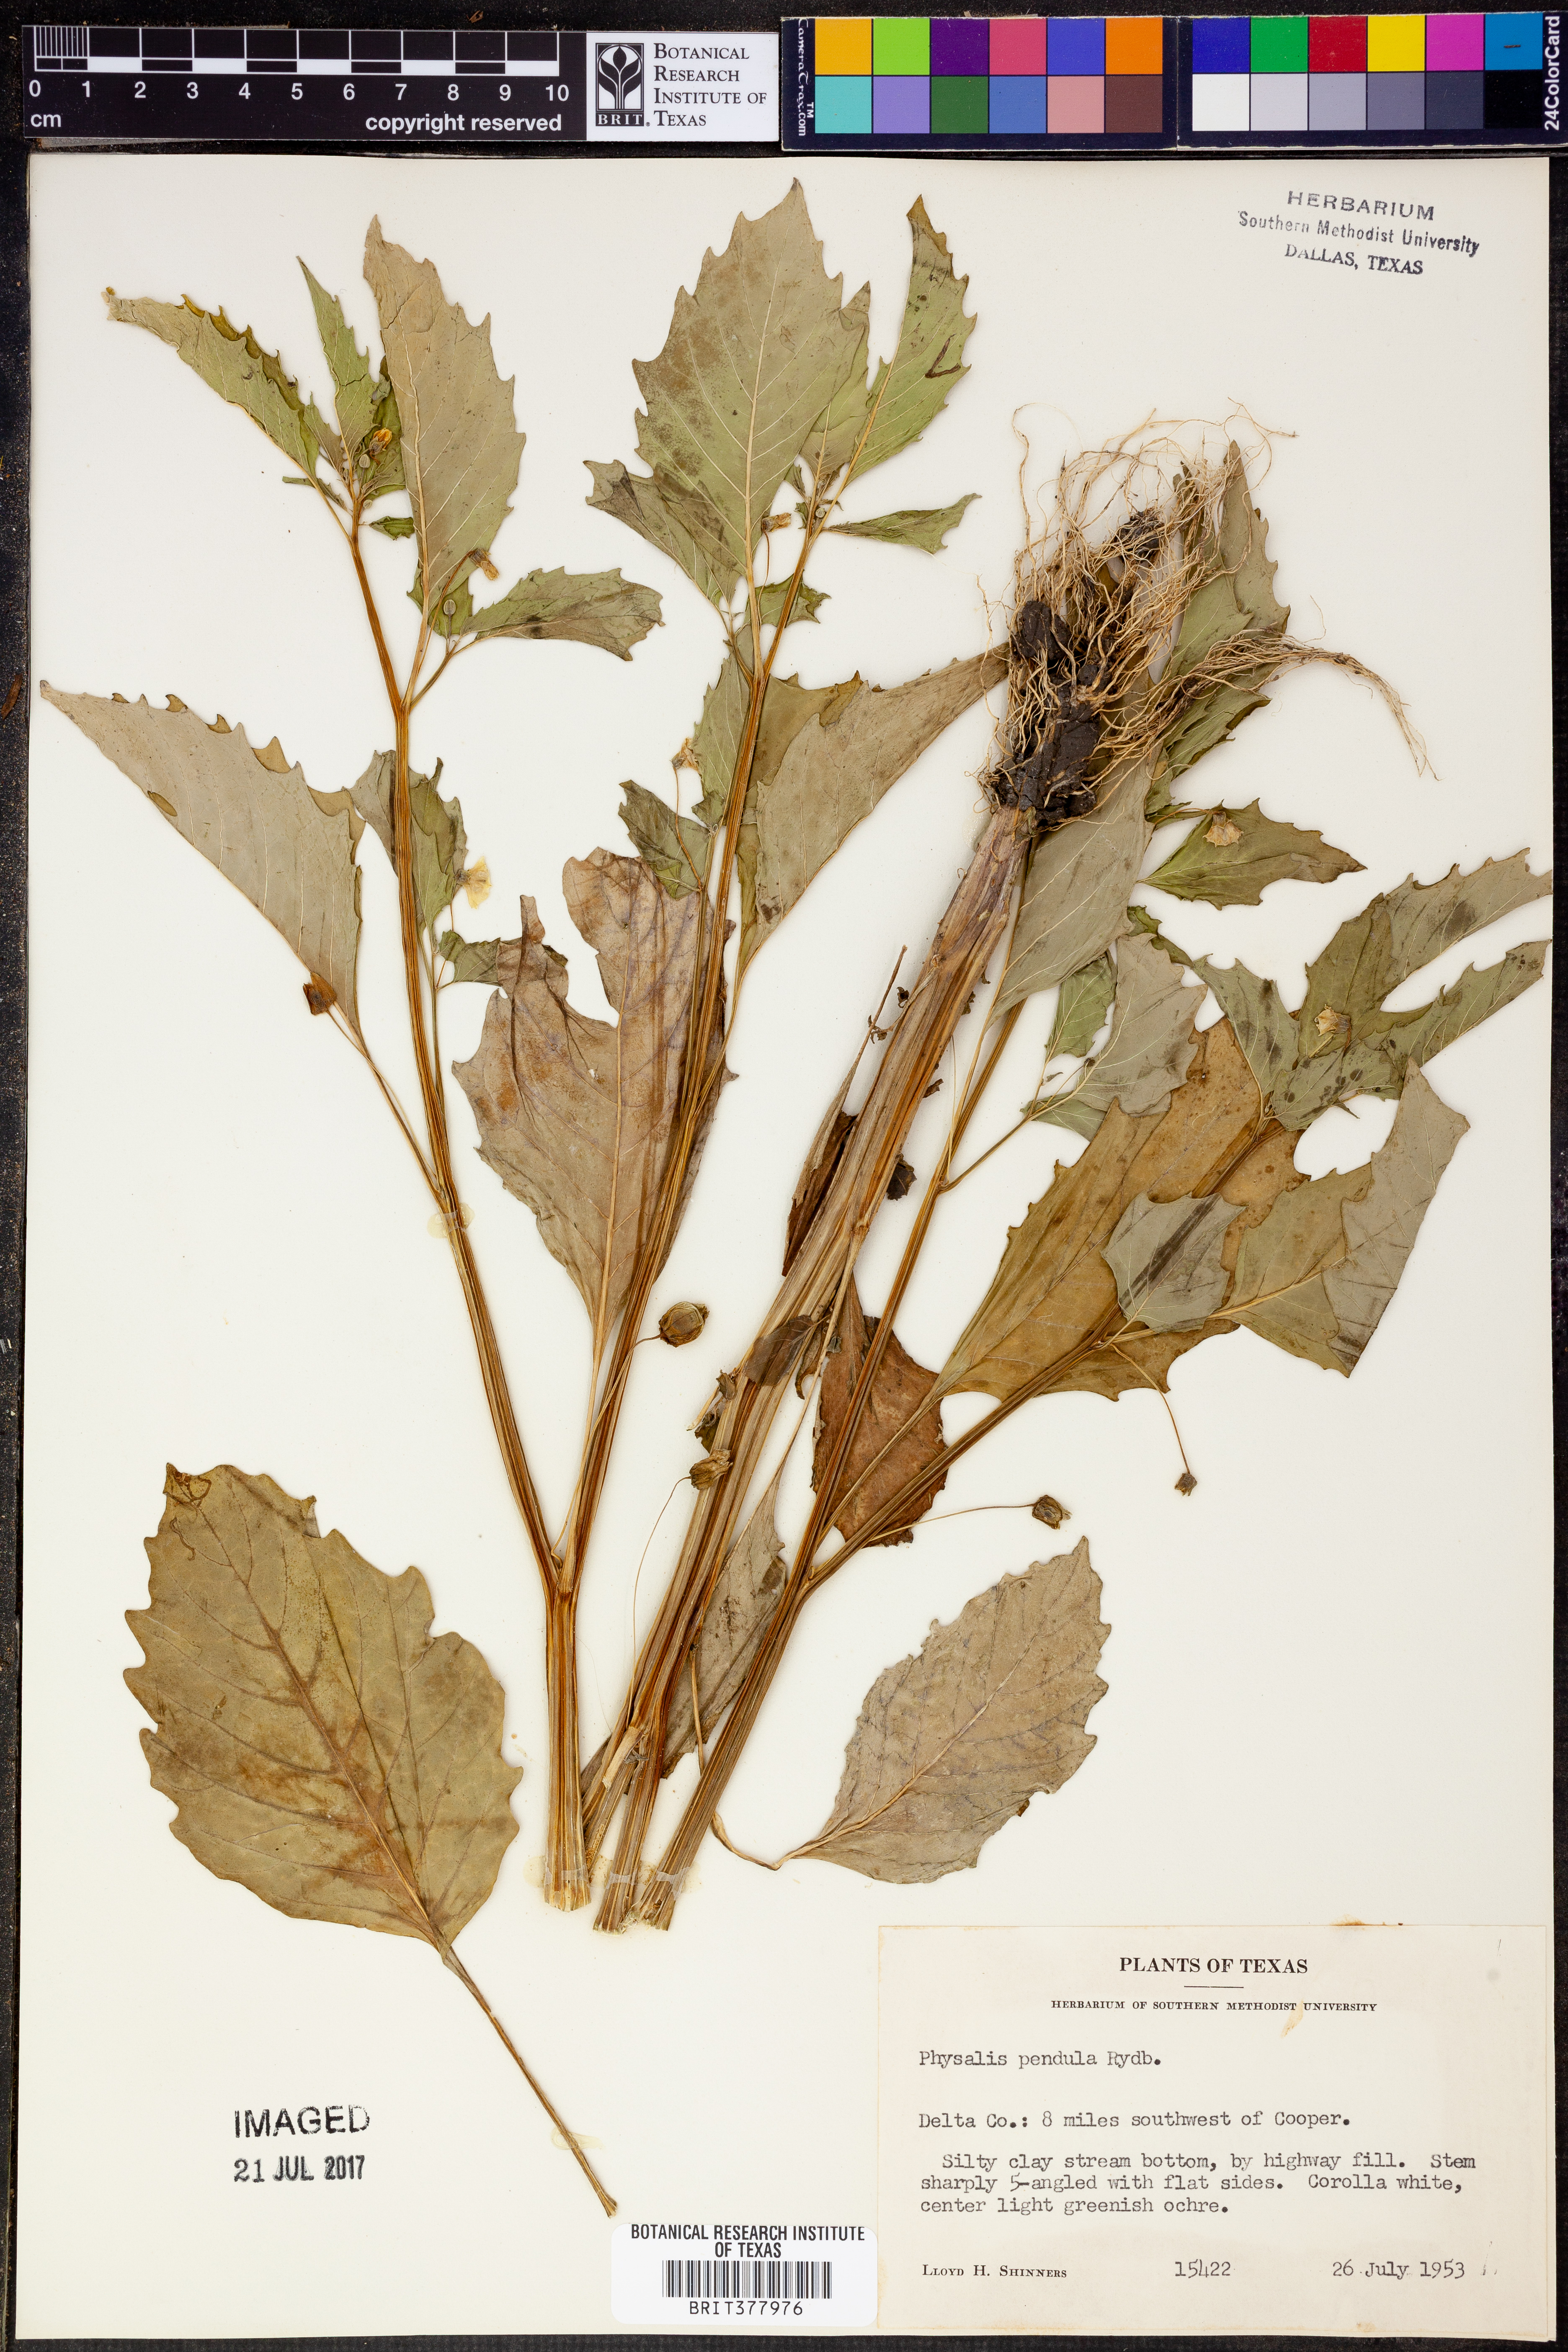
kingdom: Plantae
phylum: Tracheophyta
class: Magnoliopsida
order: Solanales
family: Solanaceae
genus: Physalis
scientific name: Physalis angulata
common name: Angular winter-cherry
